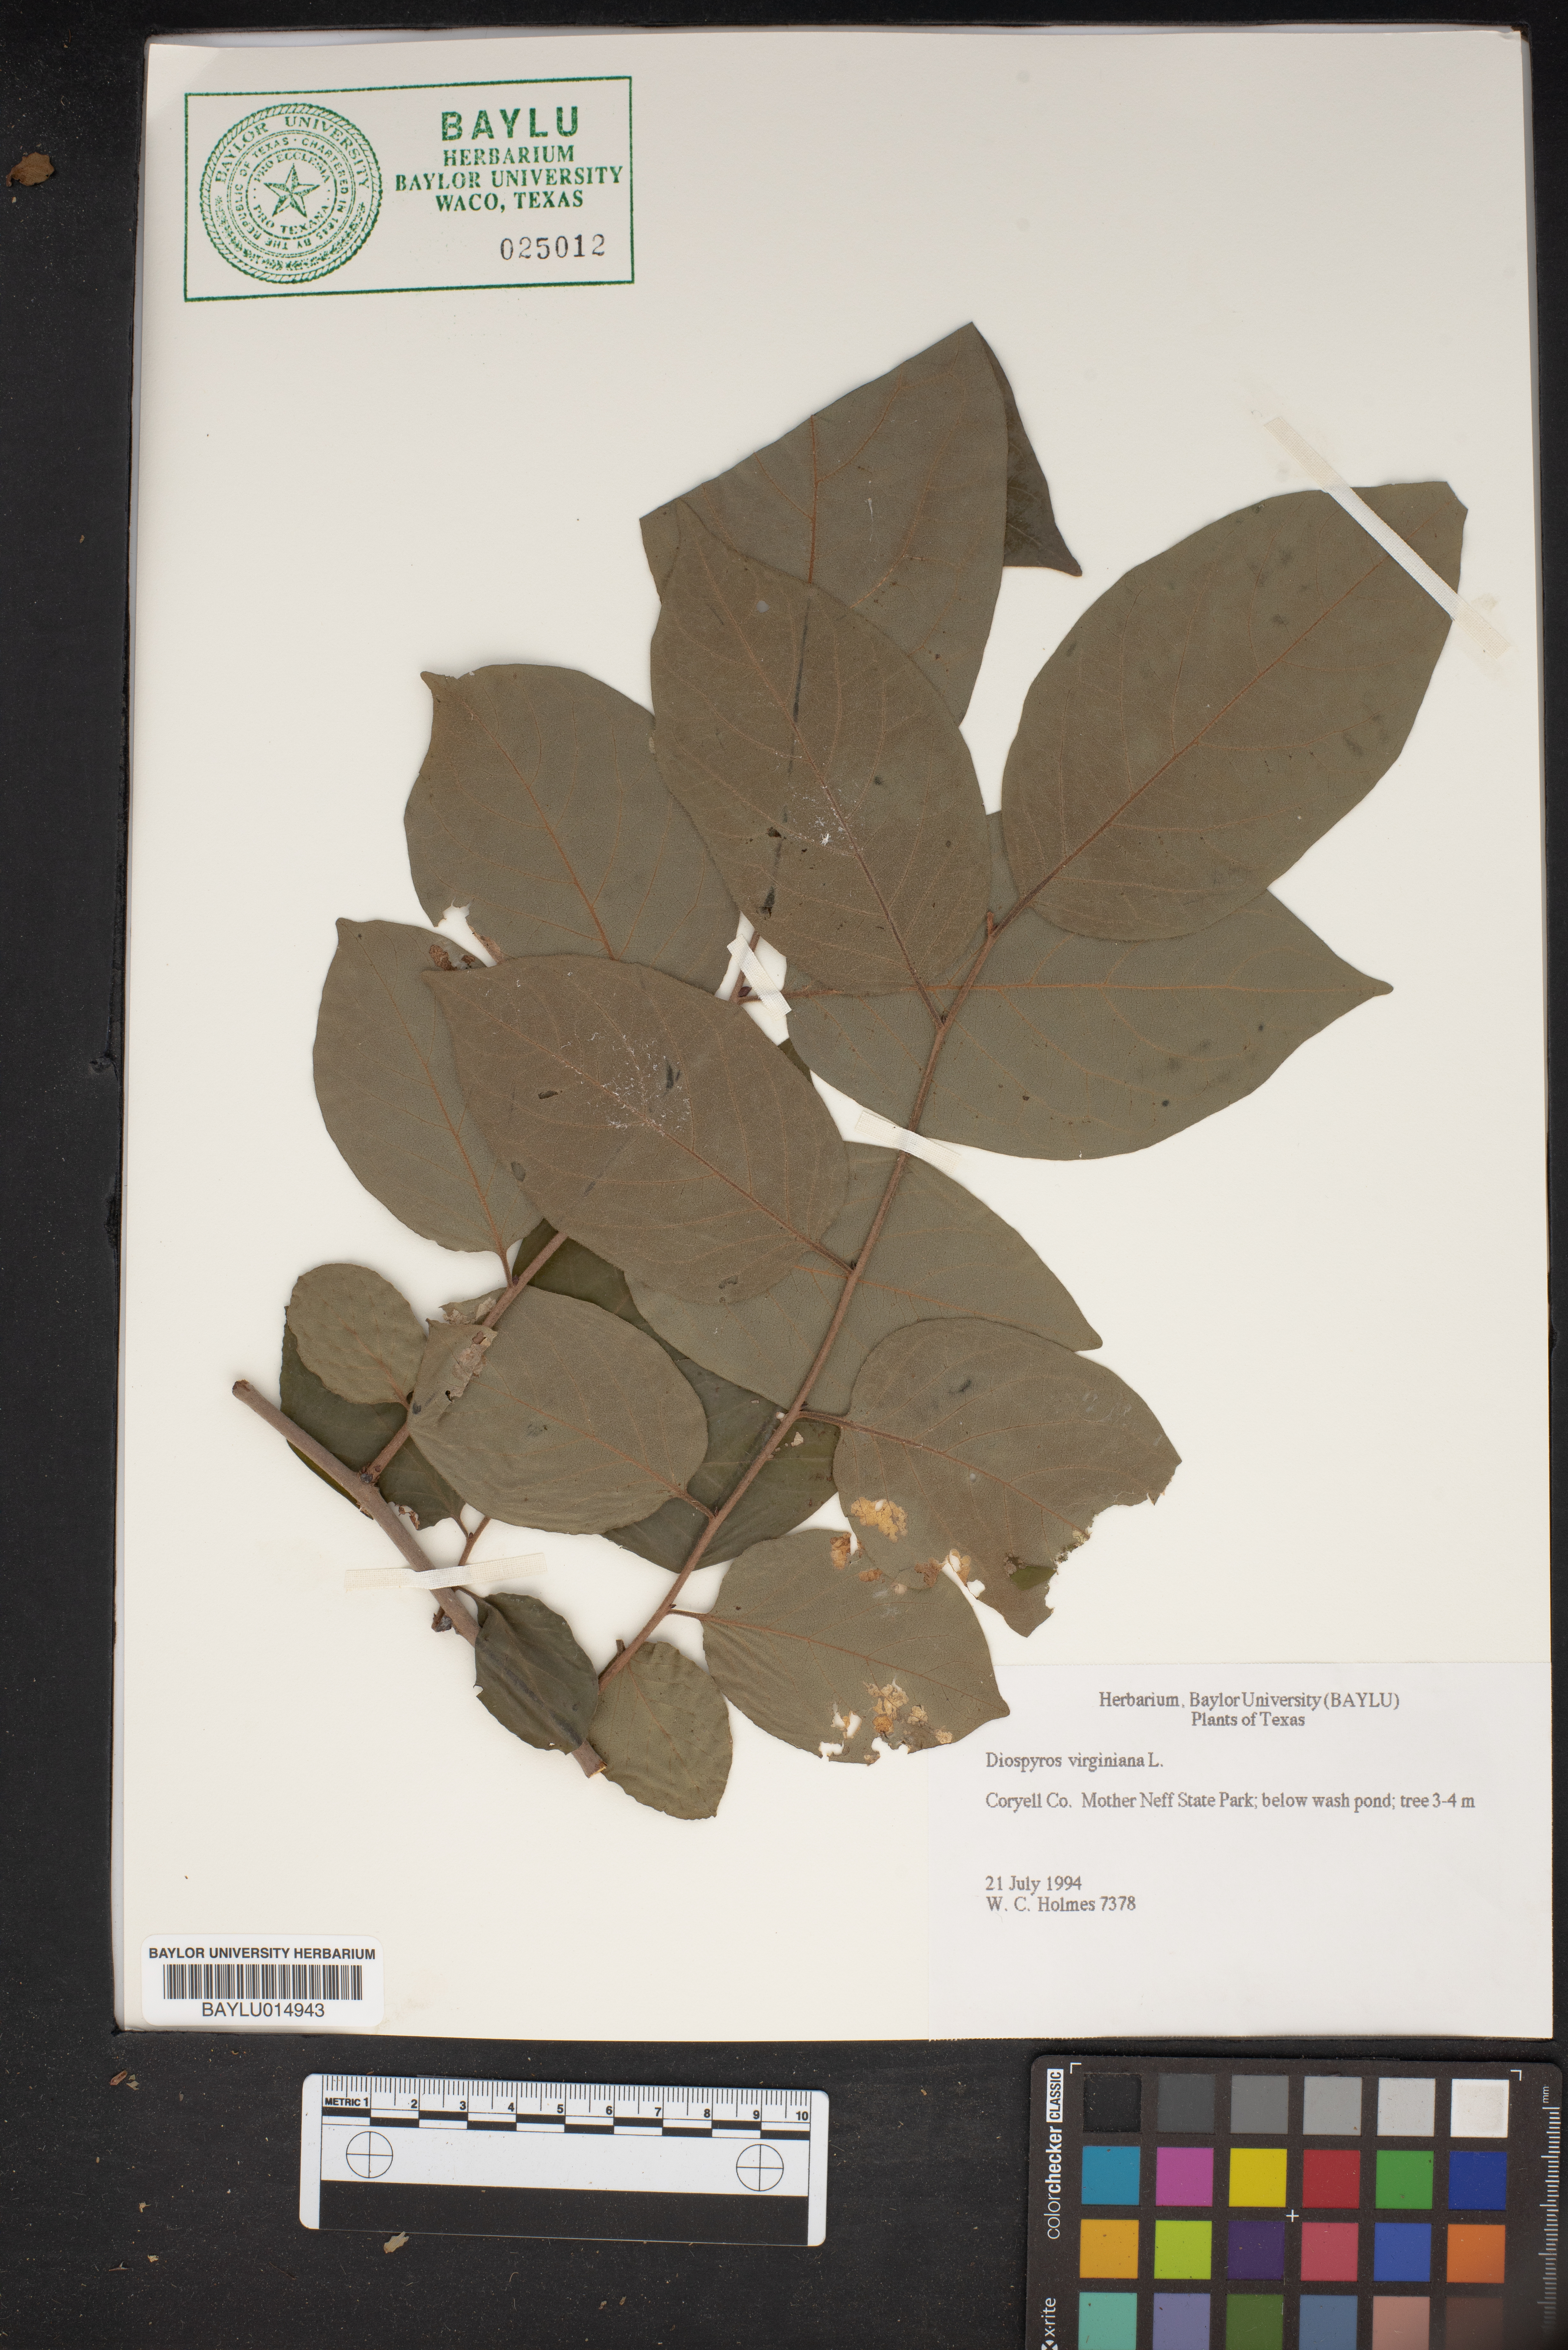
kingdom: Plantae
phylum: Tracheophyta
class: Magnoliopsida
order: Ericales
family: Ebenaceae
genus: Diospyros
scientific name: Diospyros virginiana
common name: Persimmon
